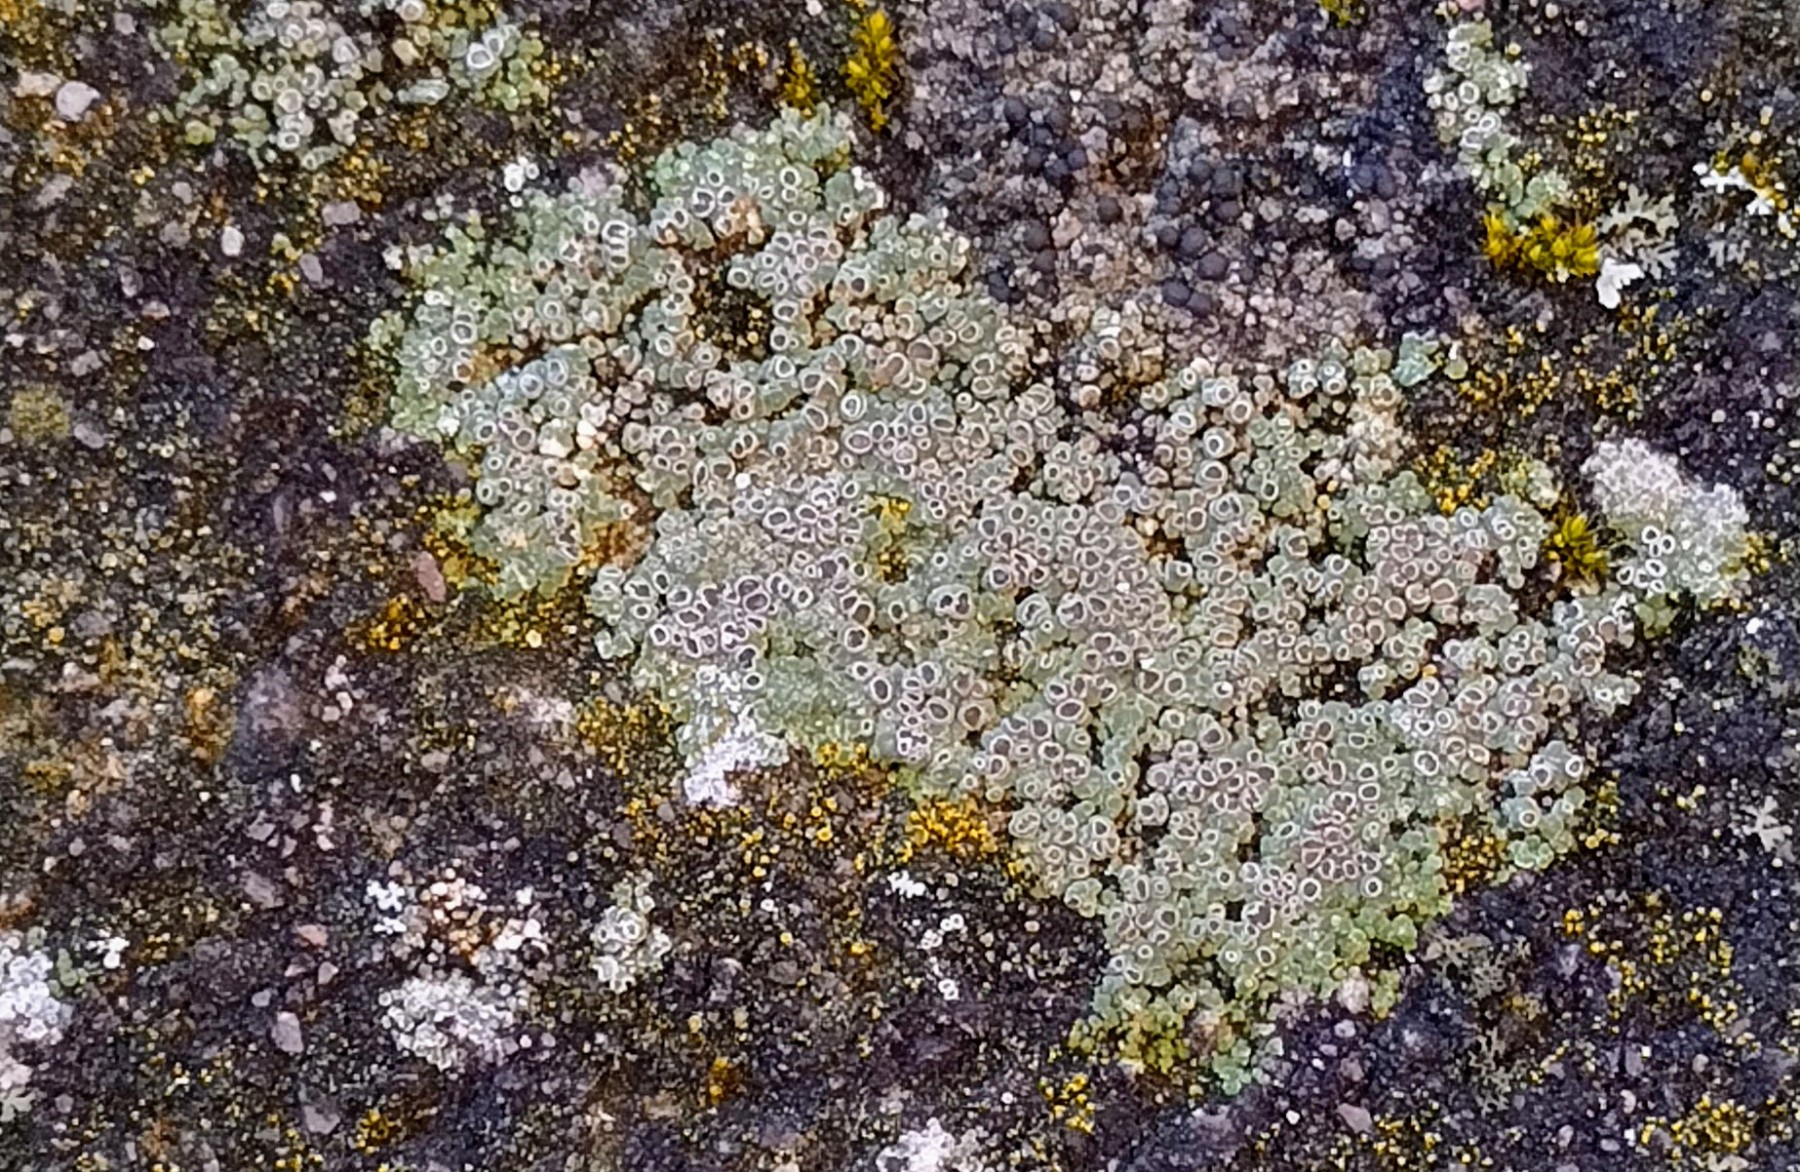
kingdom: Fungi
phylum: Ascomycota
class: Lecanoromycetes
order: Pertusariales
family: Megasporaceae
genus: Circinaria
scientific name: Circinaria contorta
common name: indviklet hulskivelav
